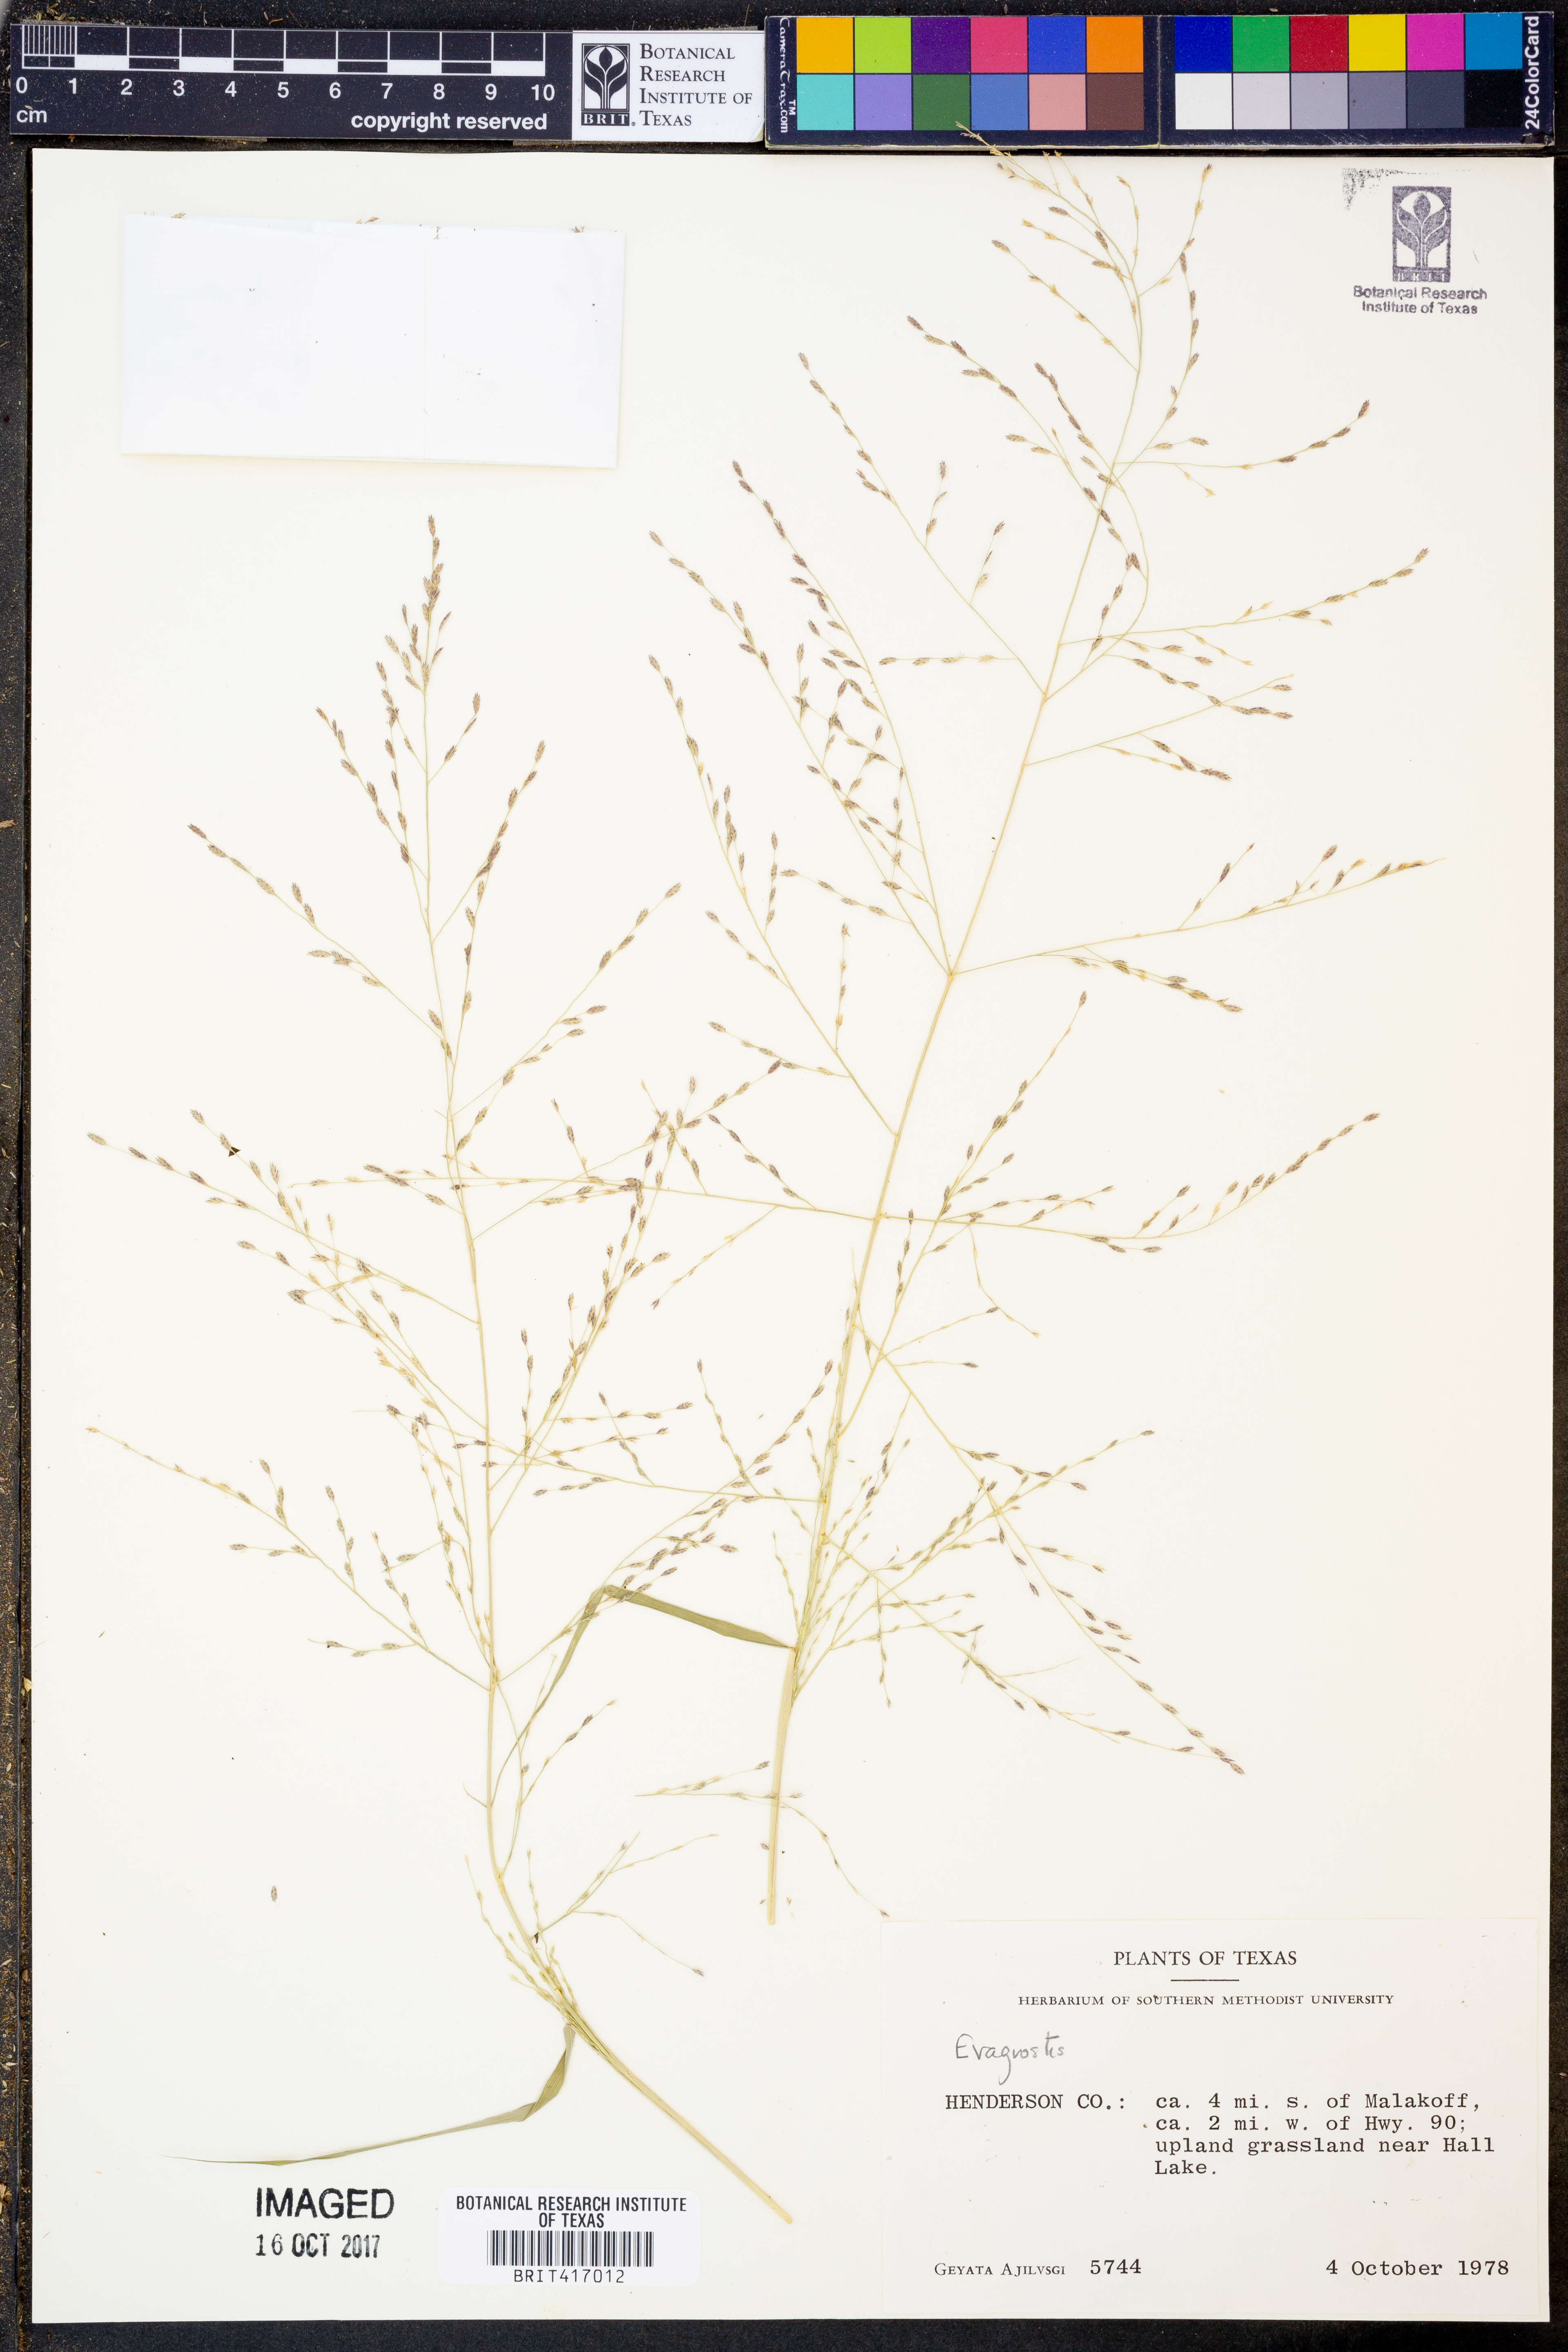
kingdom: Plantae
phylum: Tracheophyta
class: Liliopsida
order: Poales
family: Poaceae
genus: Eragrostis
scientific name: Eragrostis
